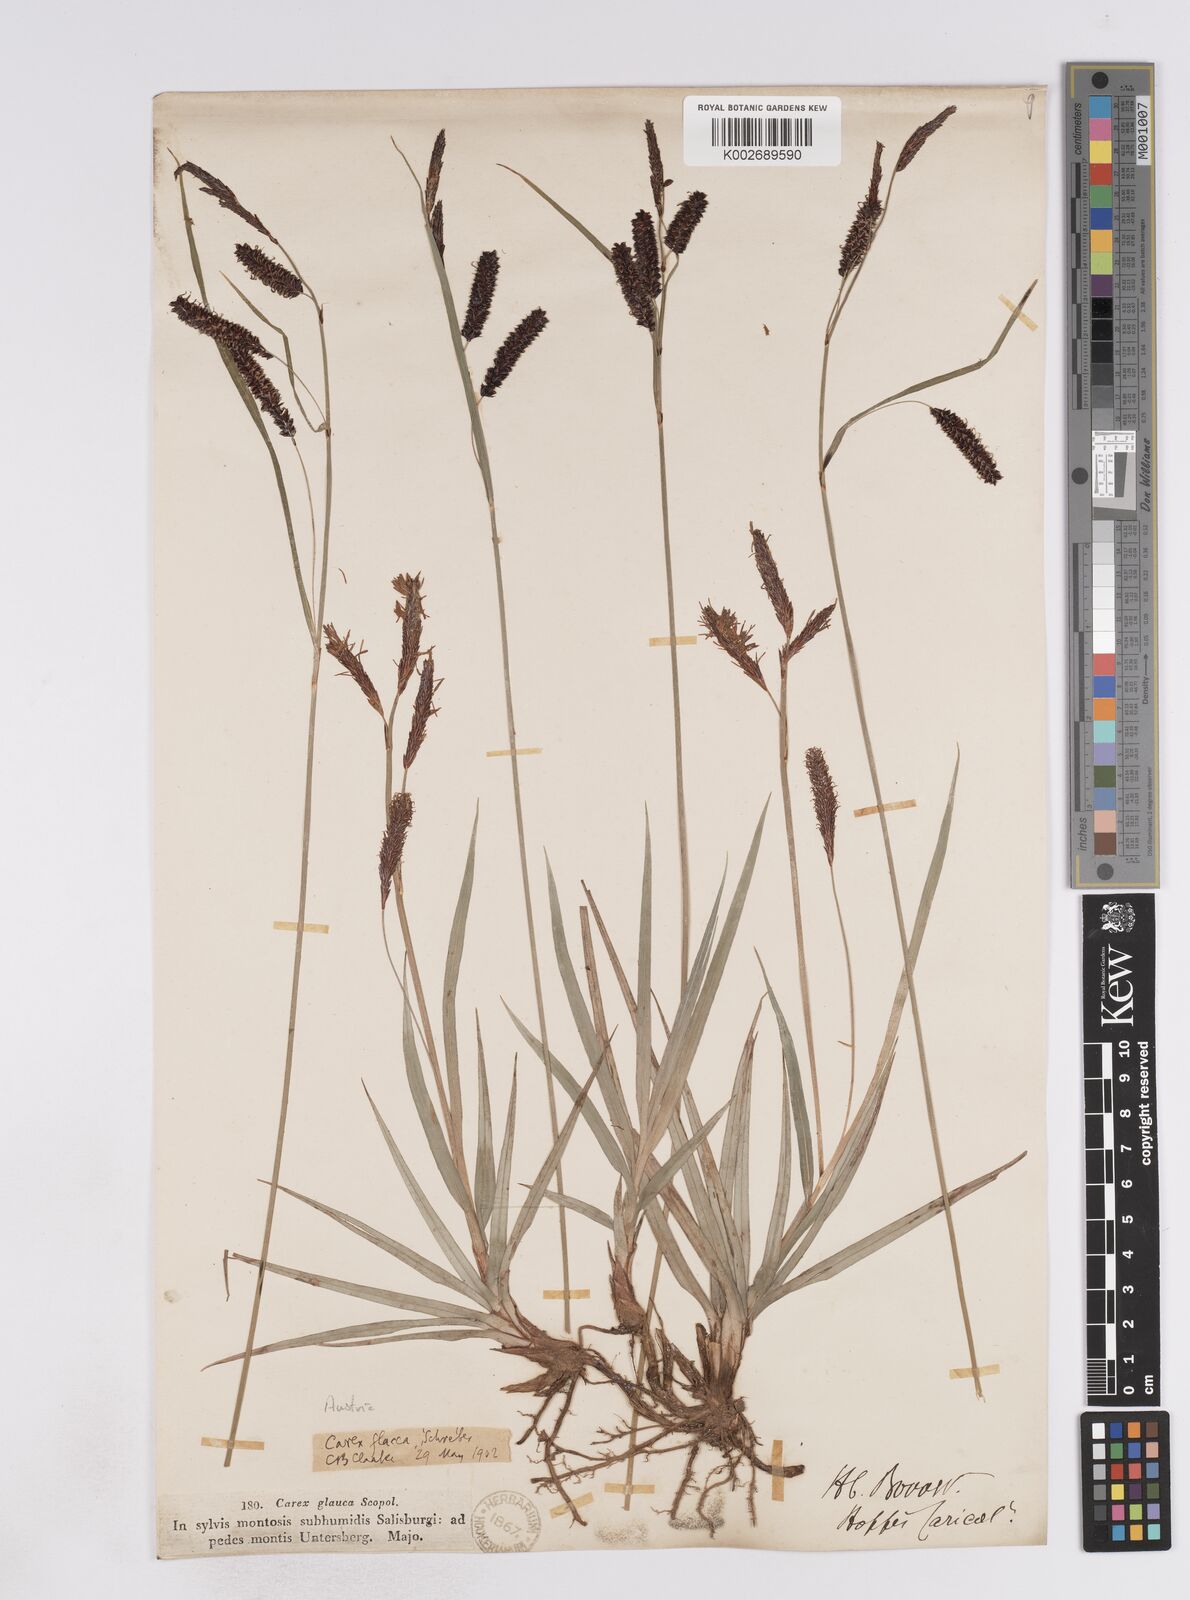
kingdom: Plantae
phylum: Tracheophyta
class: Liliopsida
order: Poales
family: Cyperaceae
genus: Carex
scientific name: Carex flacca
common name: Glaucous sedge
